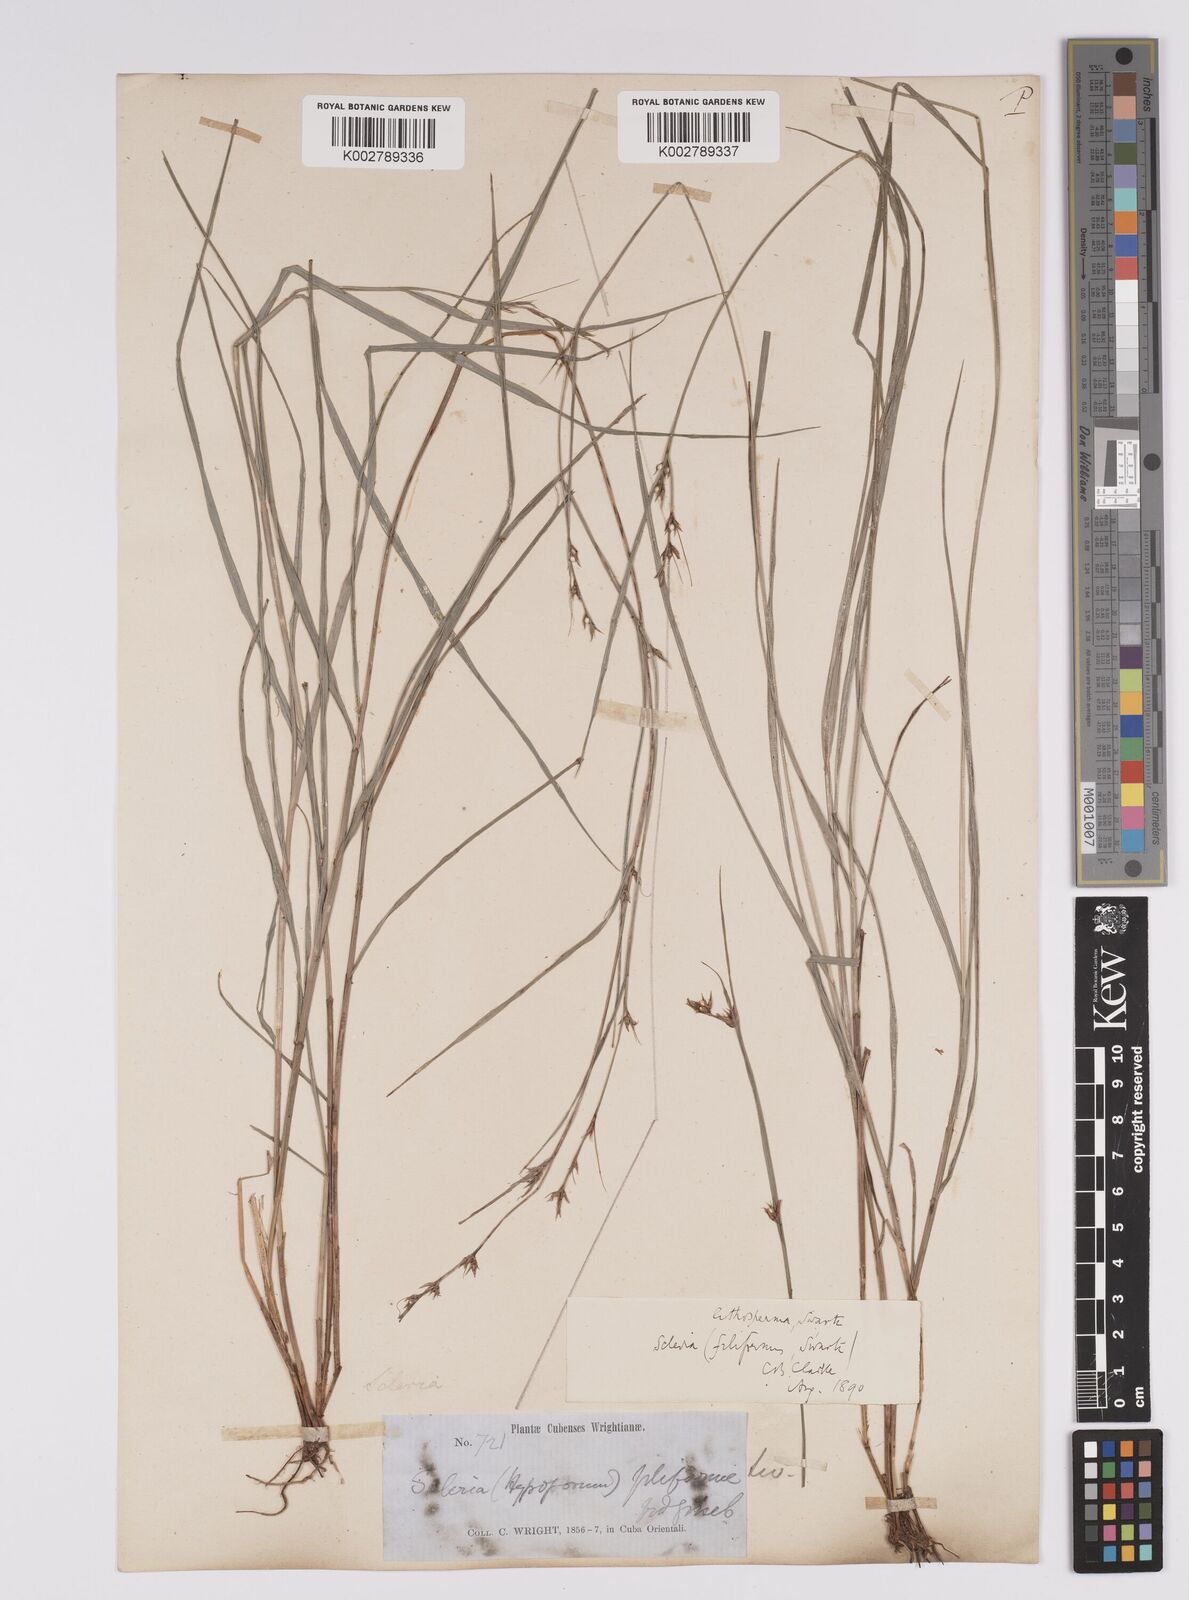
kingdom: Plantae
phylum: Tracheophyta
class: Liliopsida
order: Poales
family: Cyperaceae
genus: Scleria
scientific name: Scleria lithosperma
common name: Florida keys nut-rush
